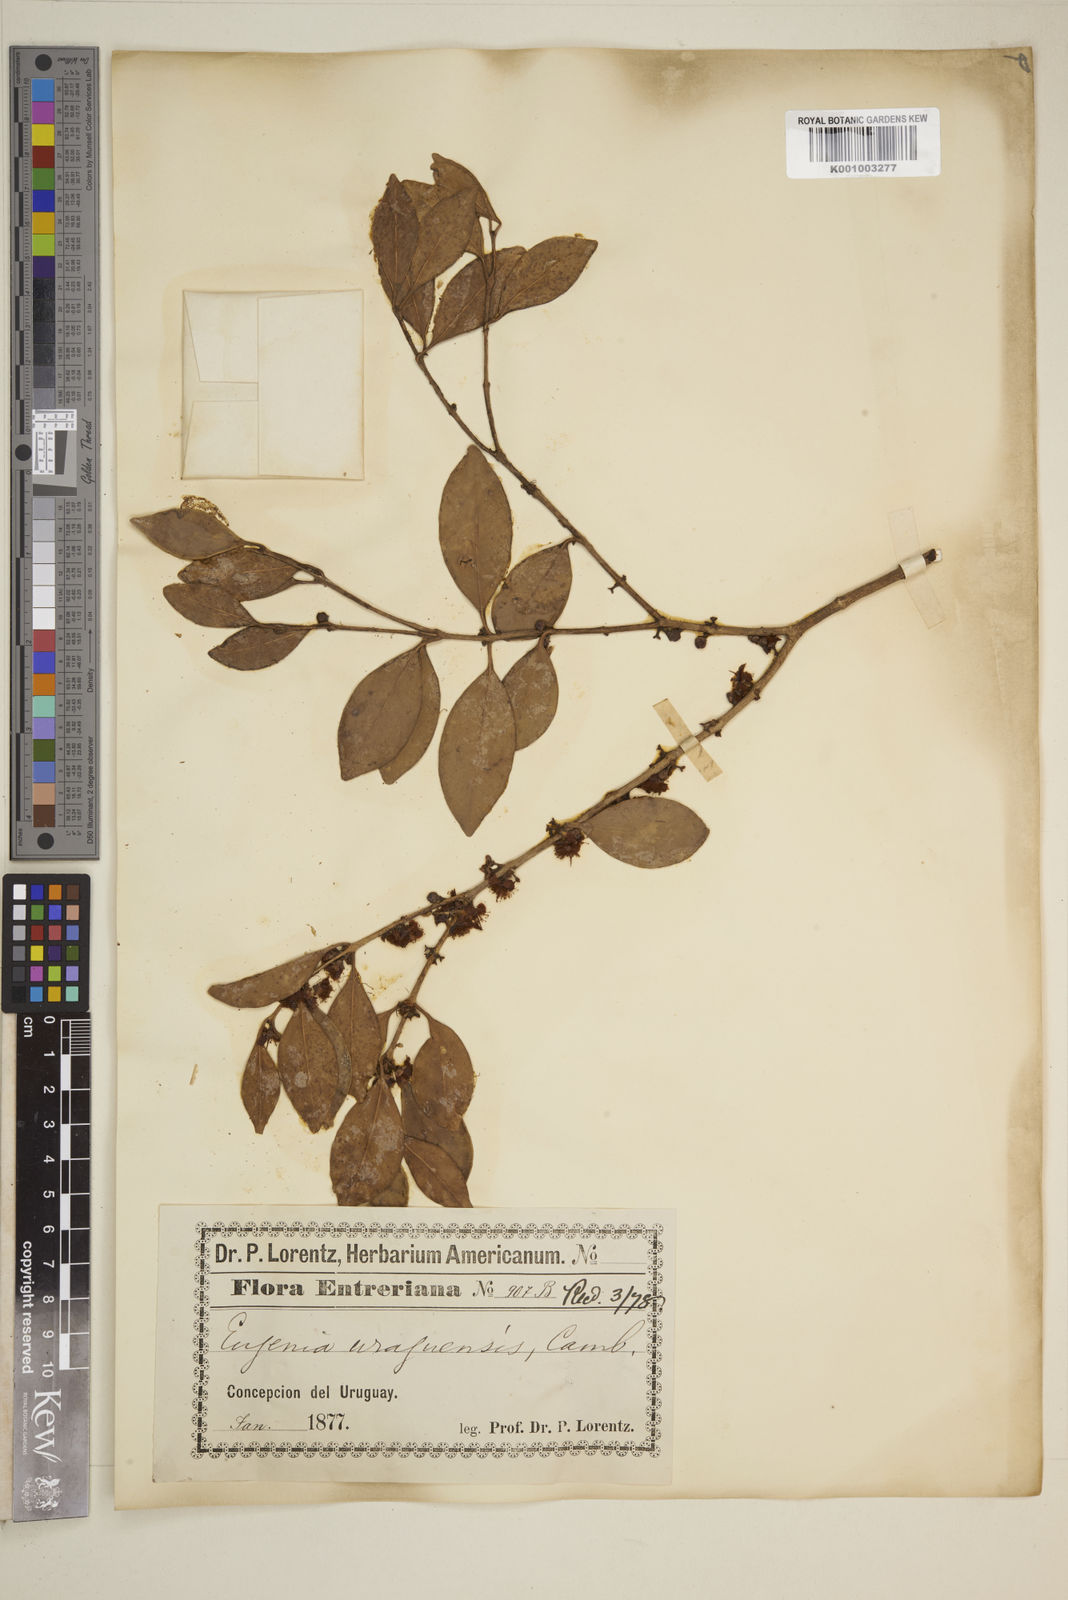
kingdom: Plantae
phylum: Tracheophyta
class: Magnoliopsida
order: Myrtales
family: Myrtaceae
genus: Eugenia
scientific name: Eugenia
